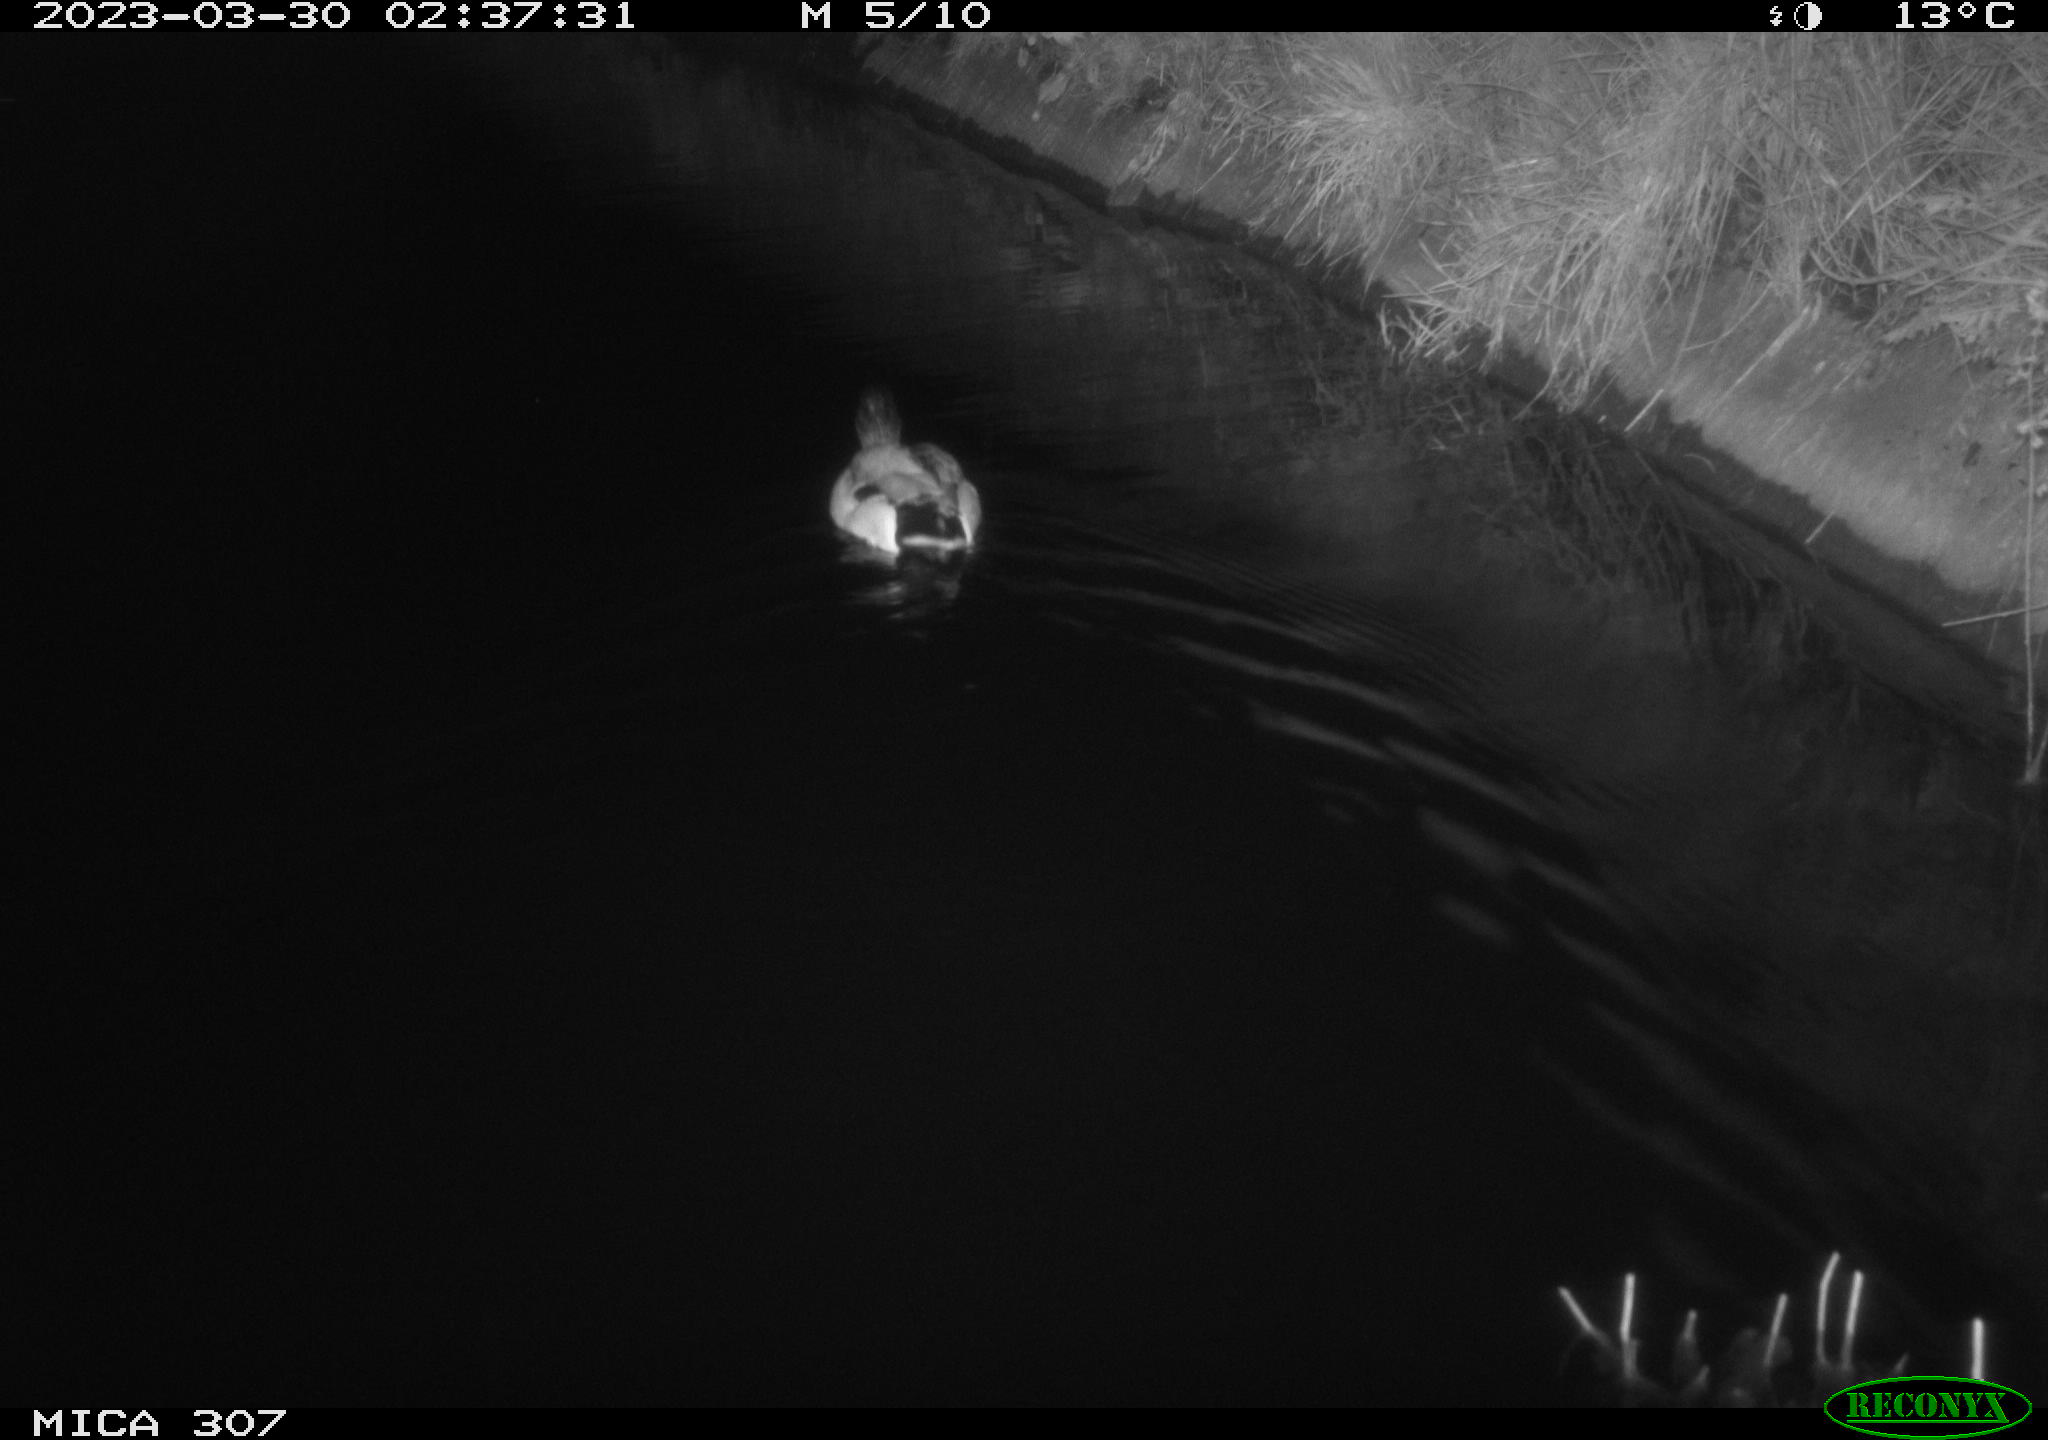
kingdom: Animalia
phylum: Chordata
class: Aves
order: Anseriformes
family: Anatidae
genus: Anas
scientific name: Anas
